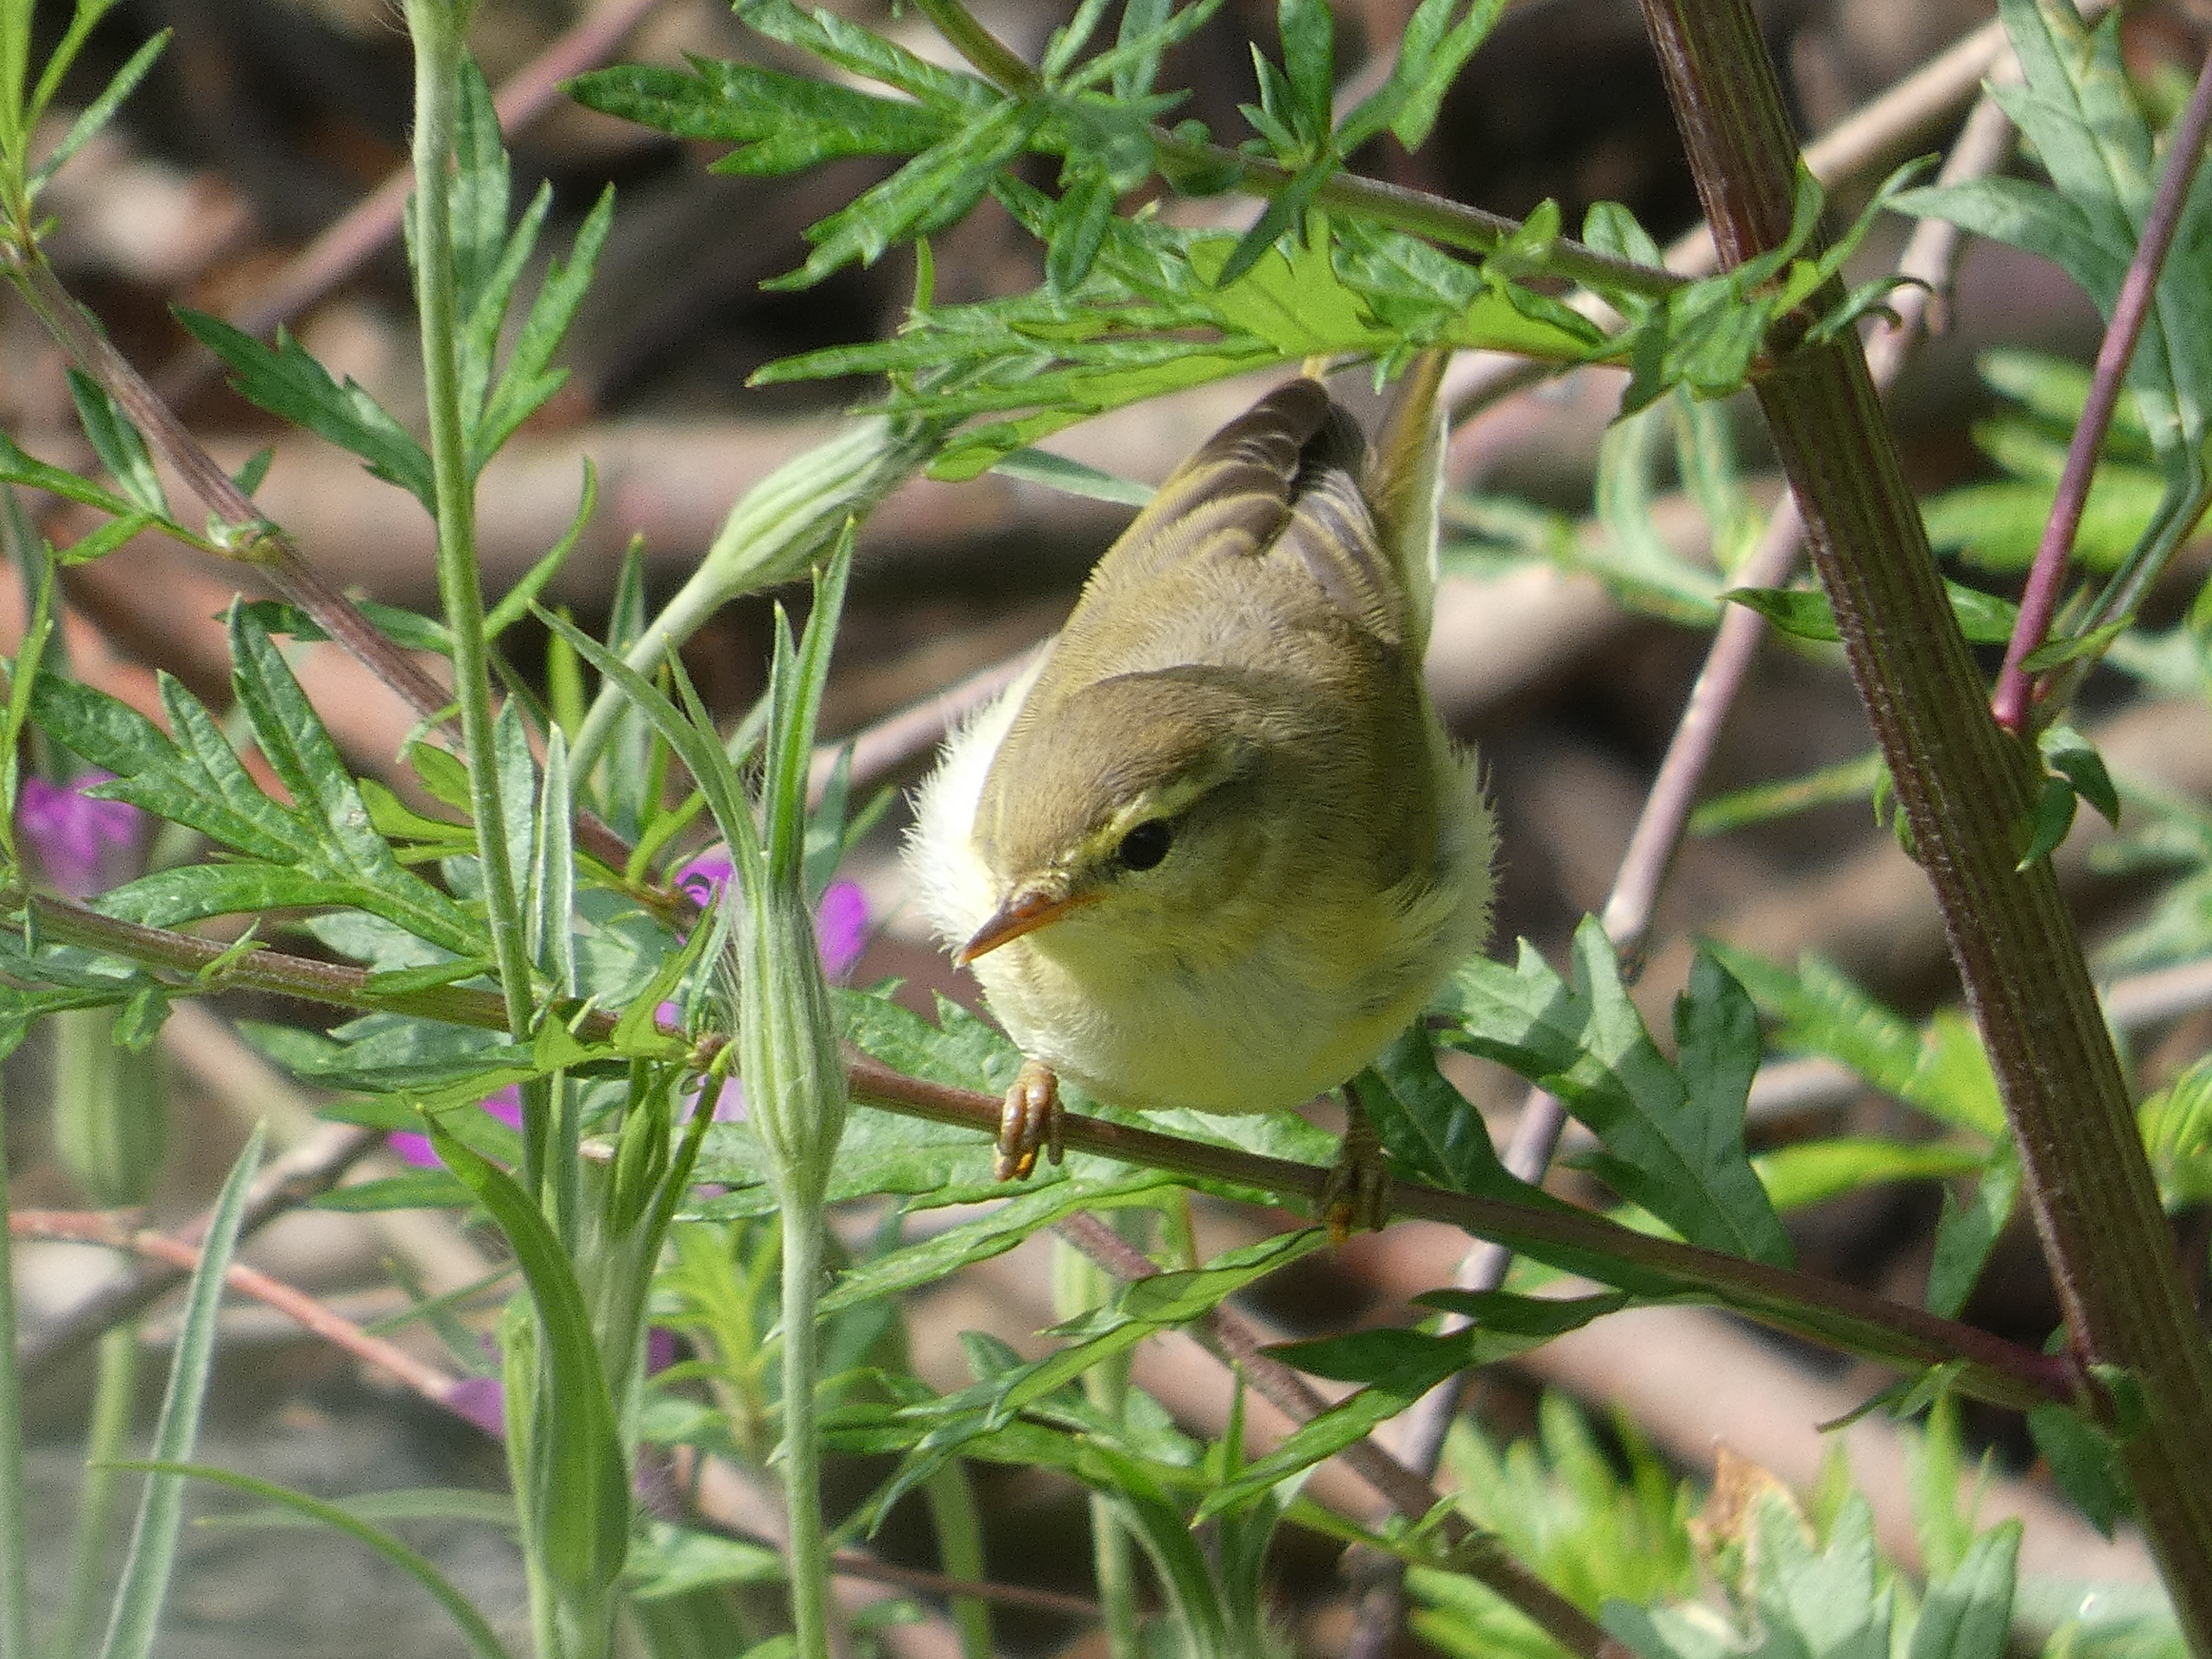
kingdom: Animalia
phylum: Chordata
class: Aves
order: Passeriformes
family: Phylloscopidae
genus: Phylloscopus
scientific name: Phylloscopus trochilus
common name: Løvsanger
